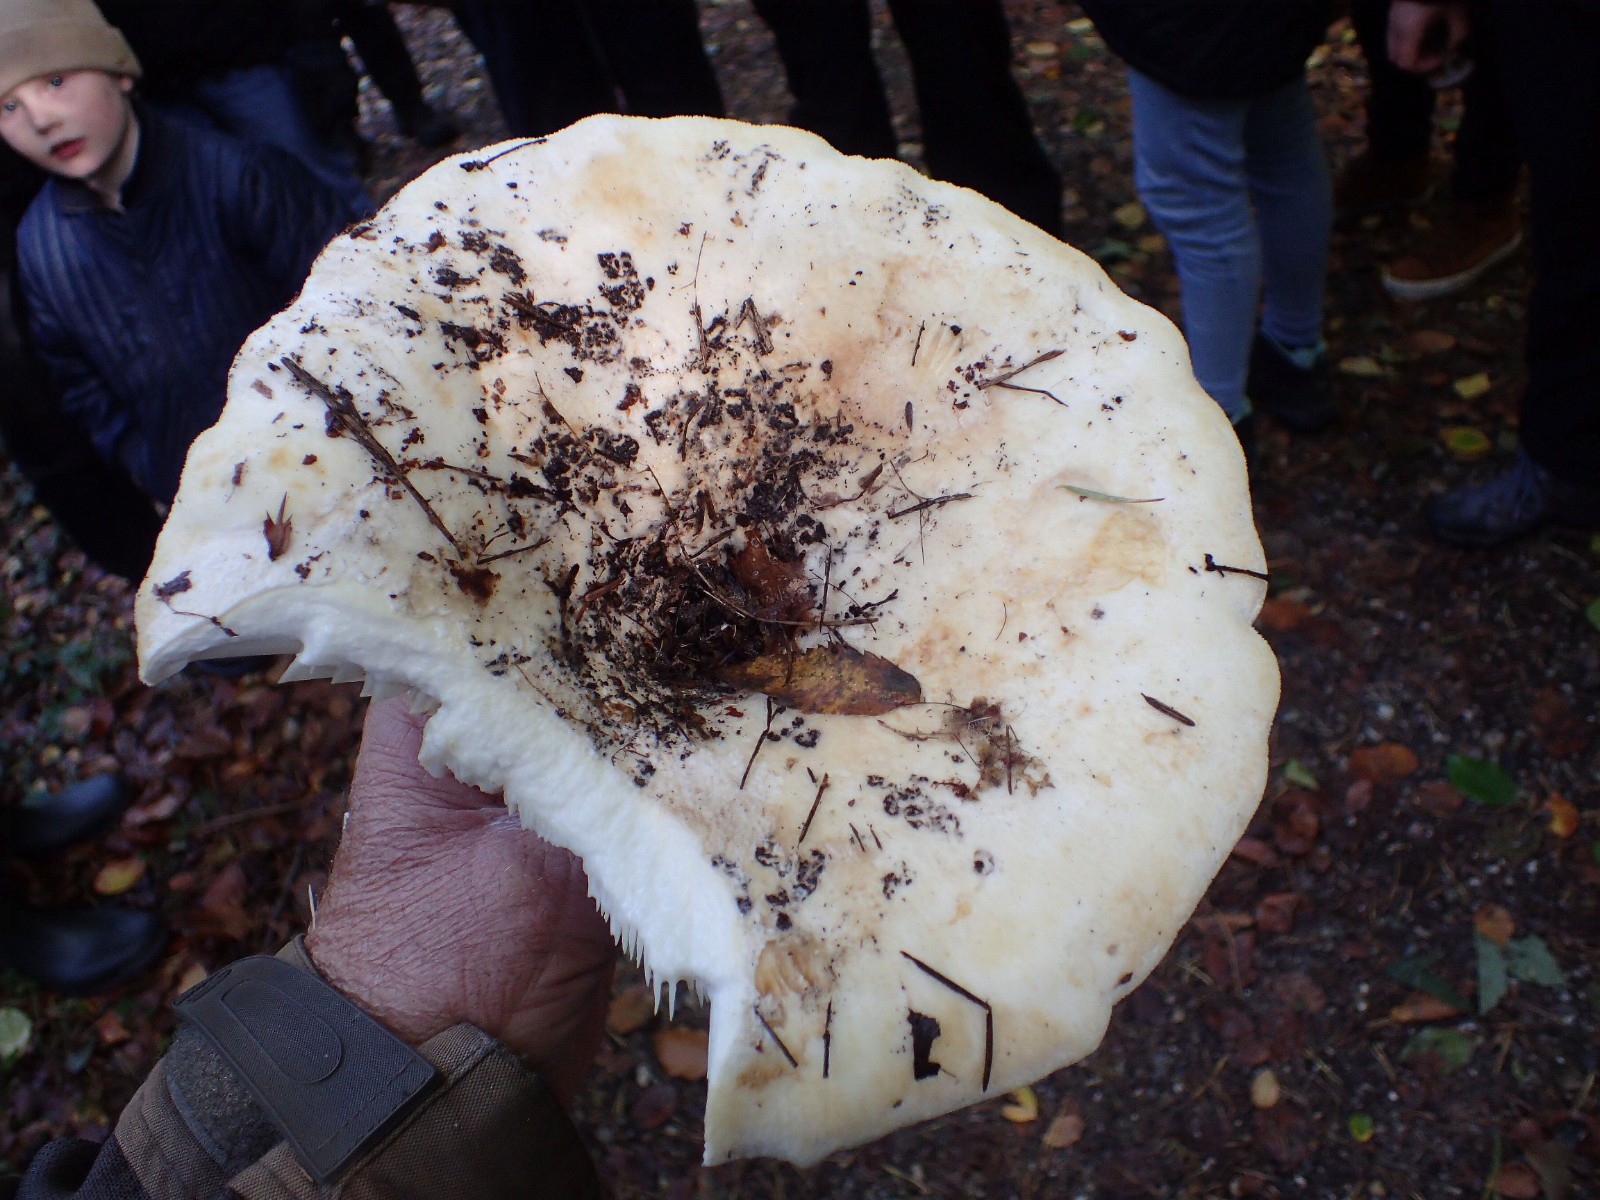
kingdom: Fungi
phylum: Basidiomycota
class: Agaricomycetes
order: Russulales
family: Russulaceae
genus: Lactifluus
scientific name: Lactifluus
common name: mælkehat
